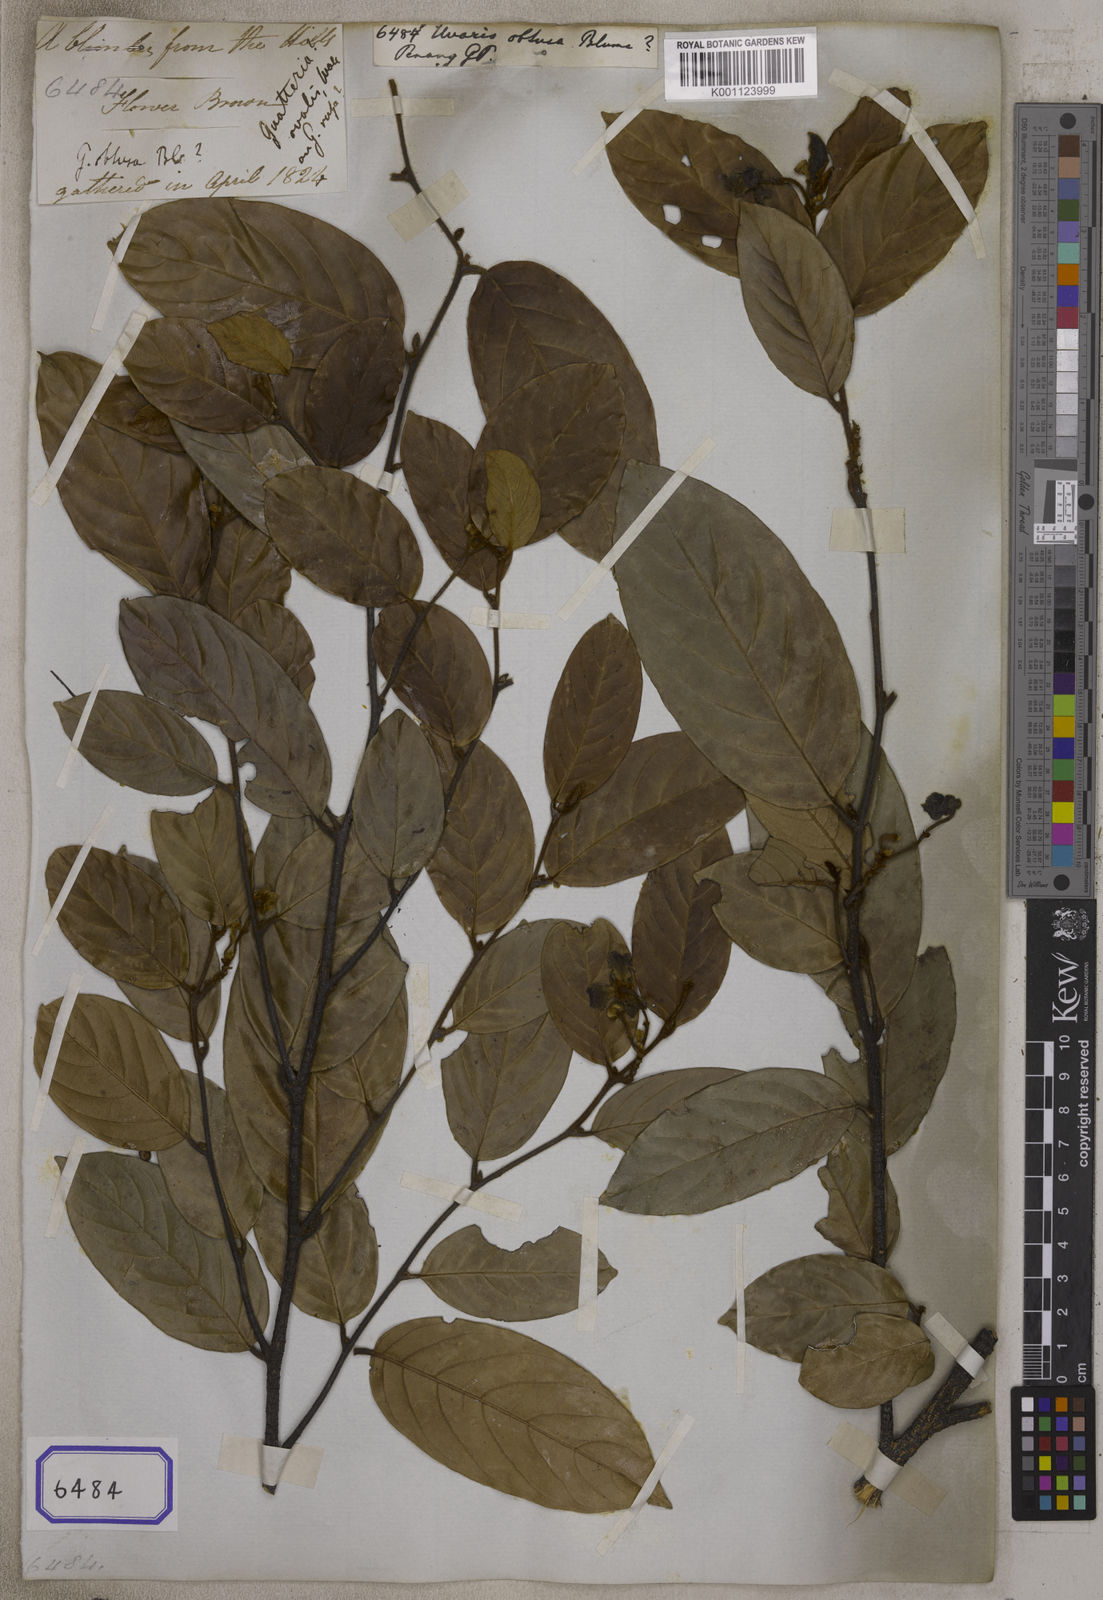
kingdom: Plantae
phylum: Tracheophyta
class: Magnoliopsida
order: Magnoliales
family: Annonaceae
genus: Mitrephora
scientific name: Mitrephora obtusa
